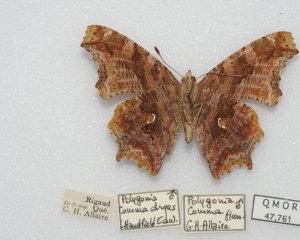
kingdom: Animalia
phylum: Arthropoda
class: Insecta
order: Lepidoptera
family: Nymphalidae
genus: Polygonia
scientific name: Polygonia comma
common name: Eastern Comma
